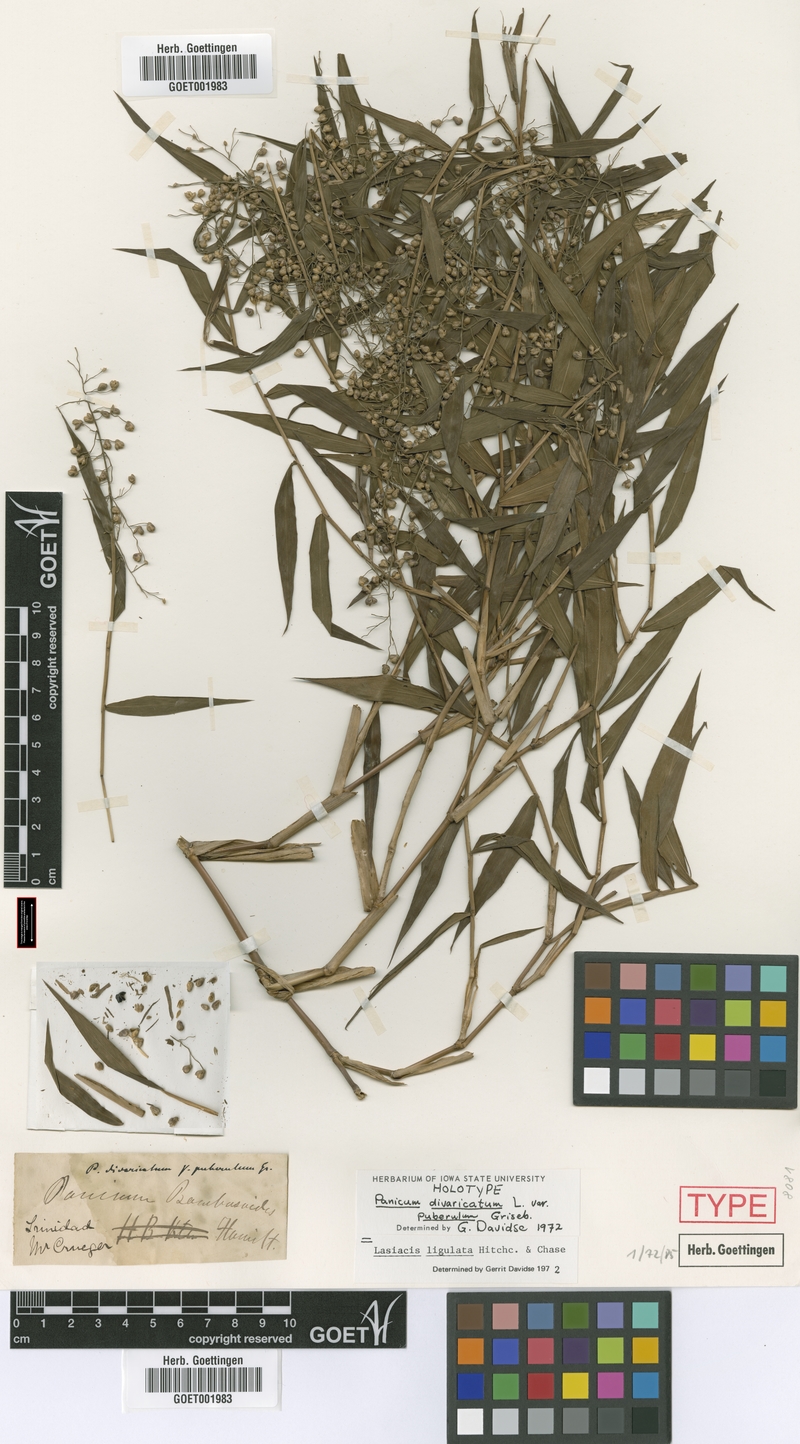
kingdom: Plantae
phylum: Tracheophyta
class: Liliopsida
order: Poales
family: Poaceae
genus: Lasiacis
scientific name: Lasiacis ligulata
